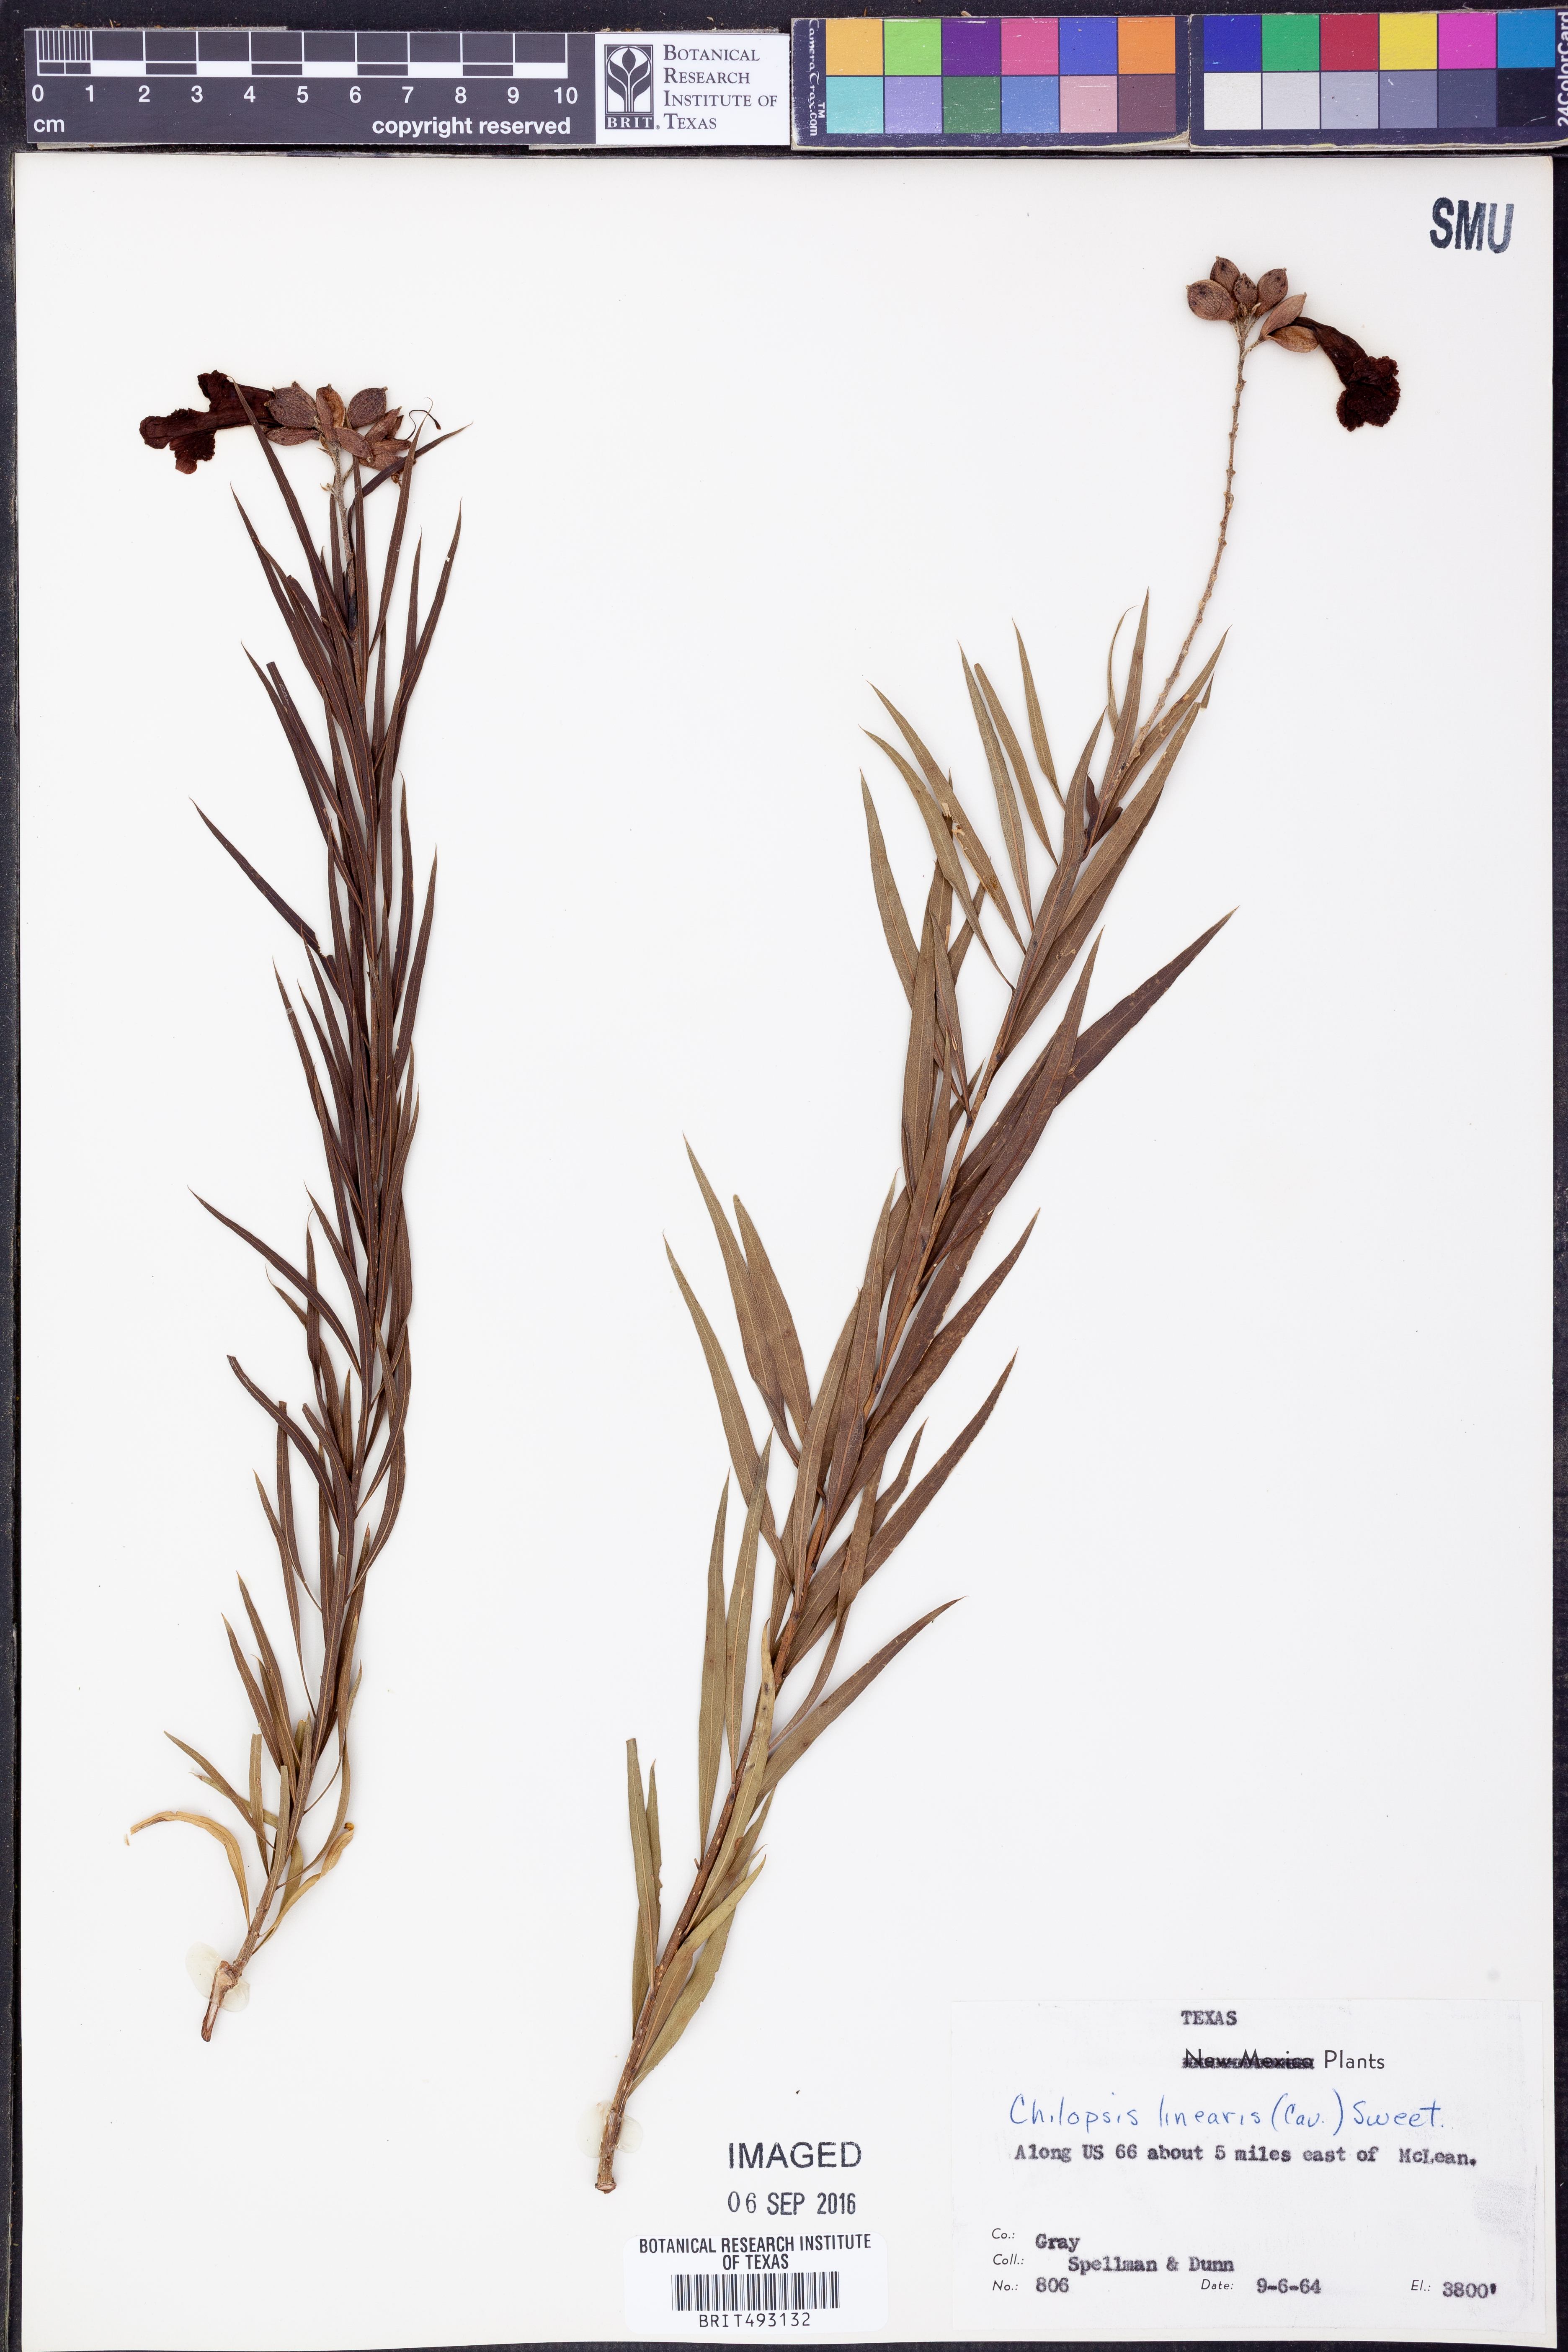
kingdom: Plantae
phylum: Tracheophyta
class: Magnoliopsida
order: Lamiales
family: Bignoniaceae
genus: Chilopsis
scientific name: Chilopsis linearis
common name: Desert-willow
